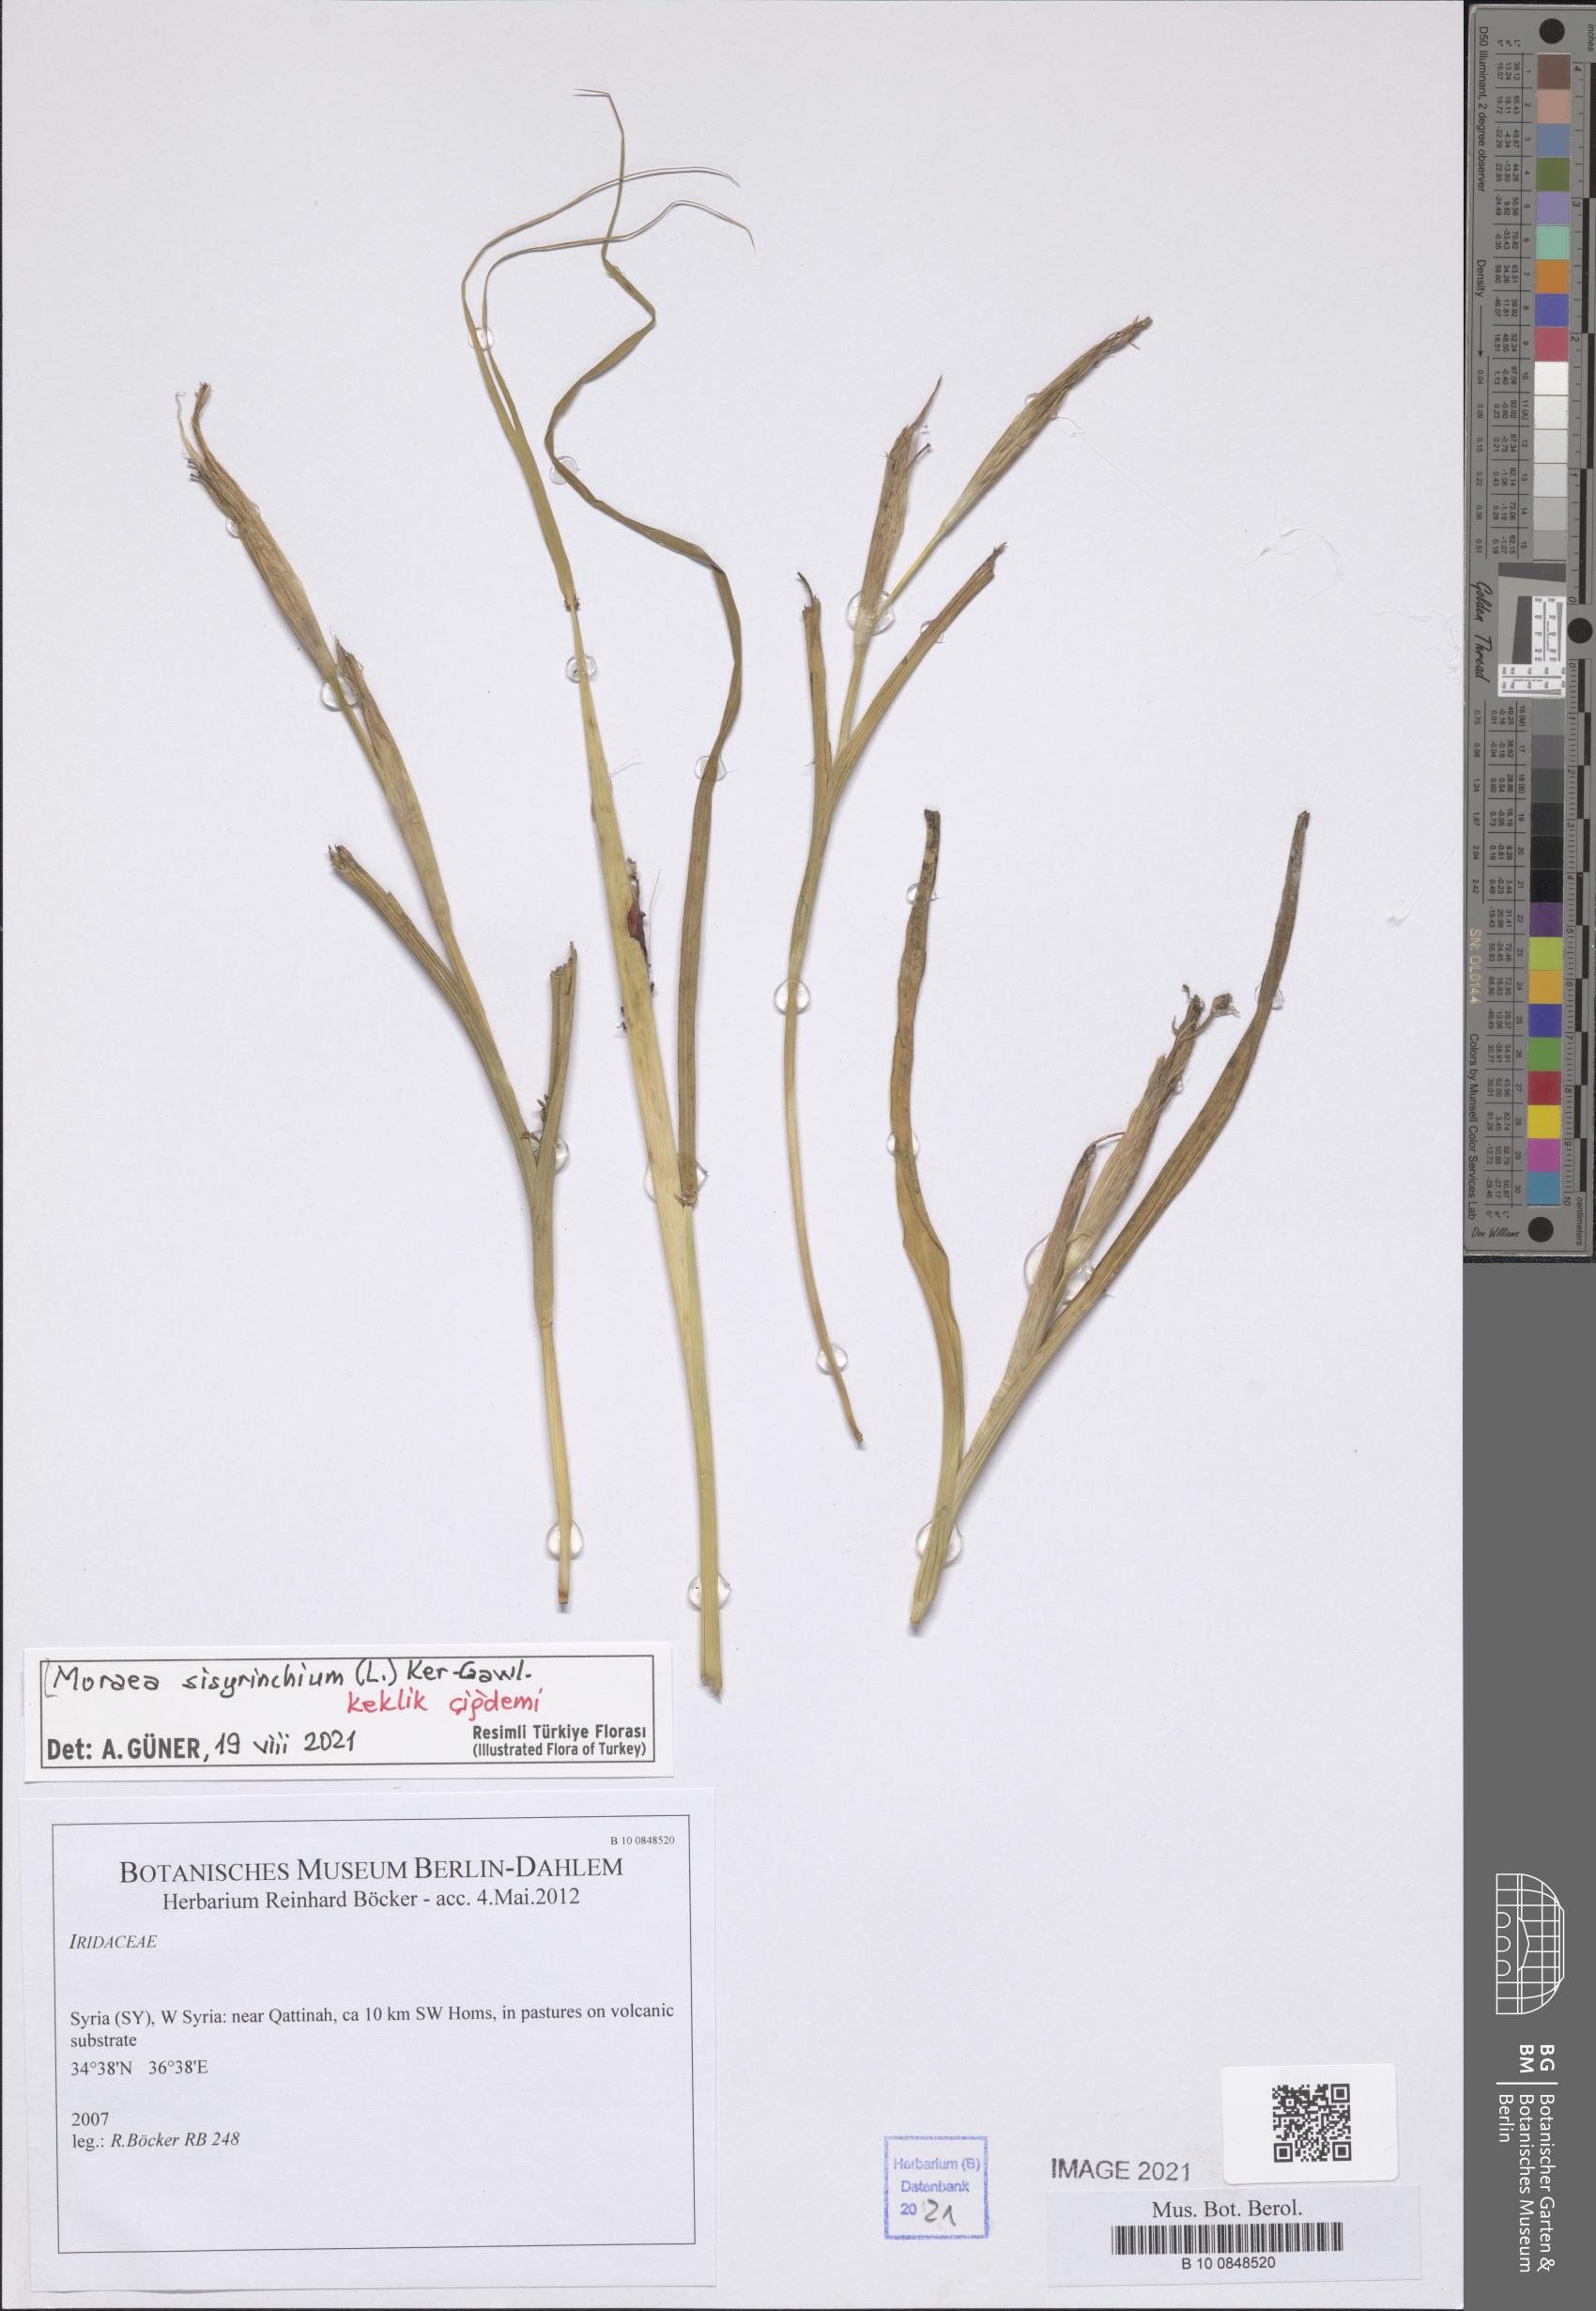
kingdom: Plantae
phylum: Tracheophyta
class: Liliopsida
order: Asparagales
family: Iridaceae
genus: Moraea
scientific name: Moraea sisyrinchium
